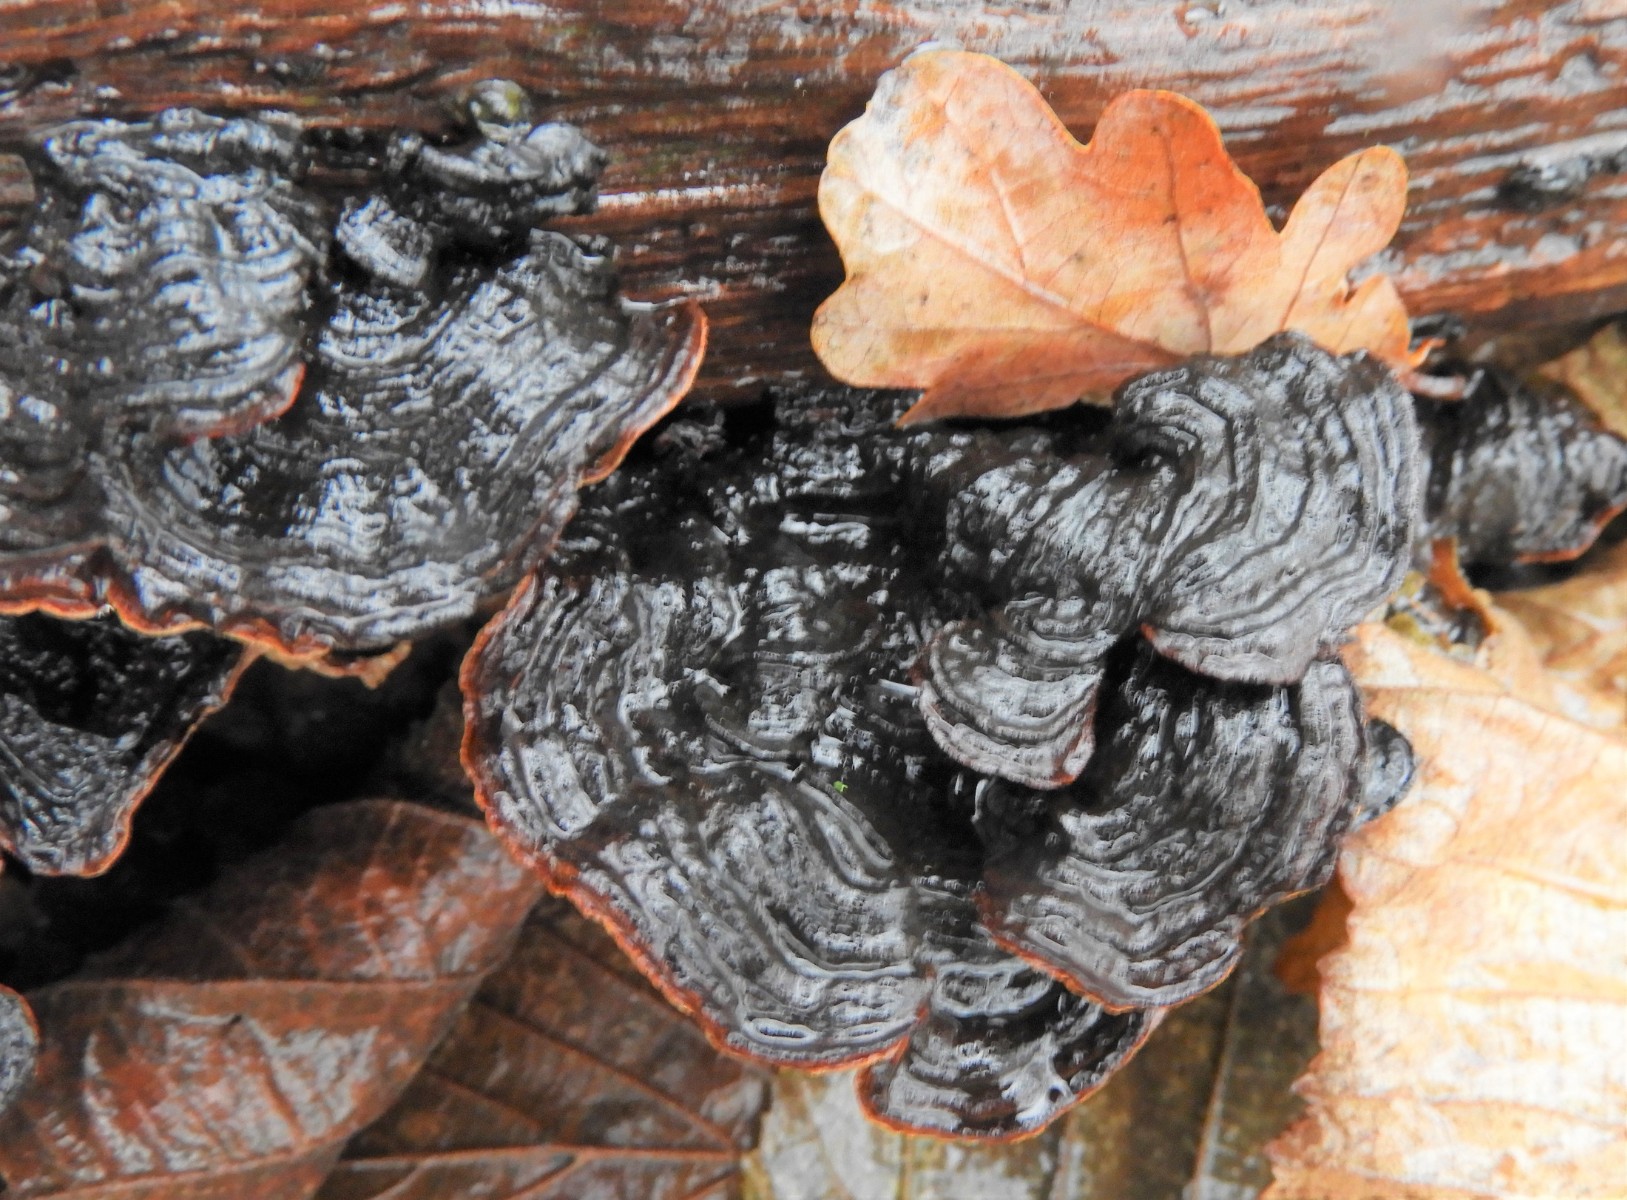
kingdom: Fungi
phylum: Basidiomycota
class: Agaricomycetes
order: Hymenochaetales
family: Hymenochaetaceae
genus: Hymenochaete
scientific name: Hymenochaete rubiginosa
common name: stiv ruslædersvamp
